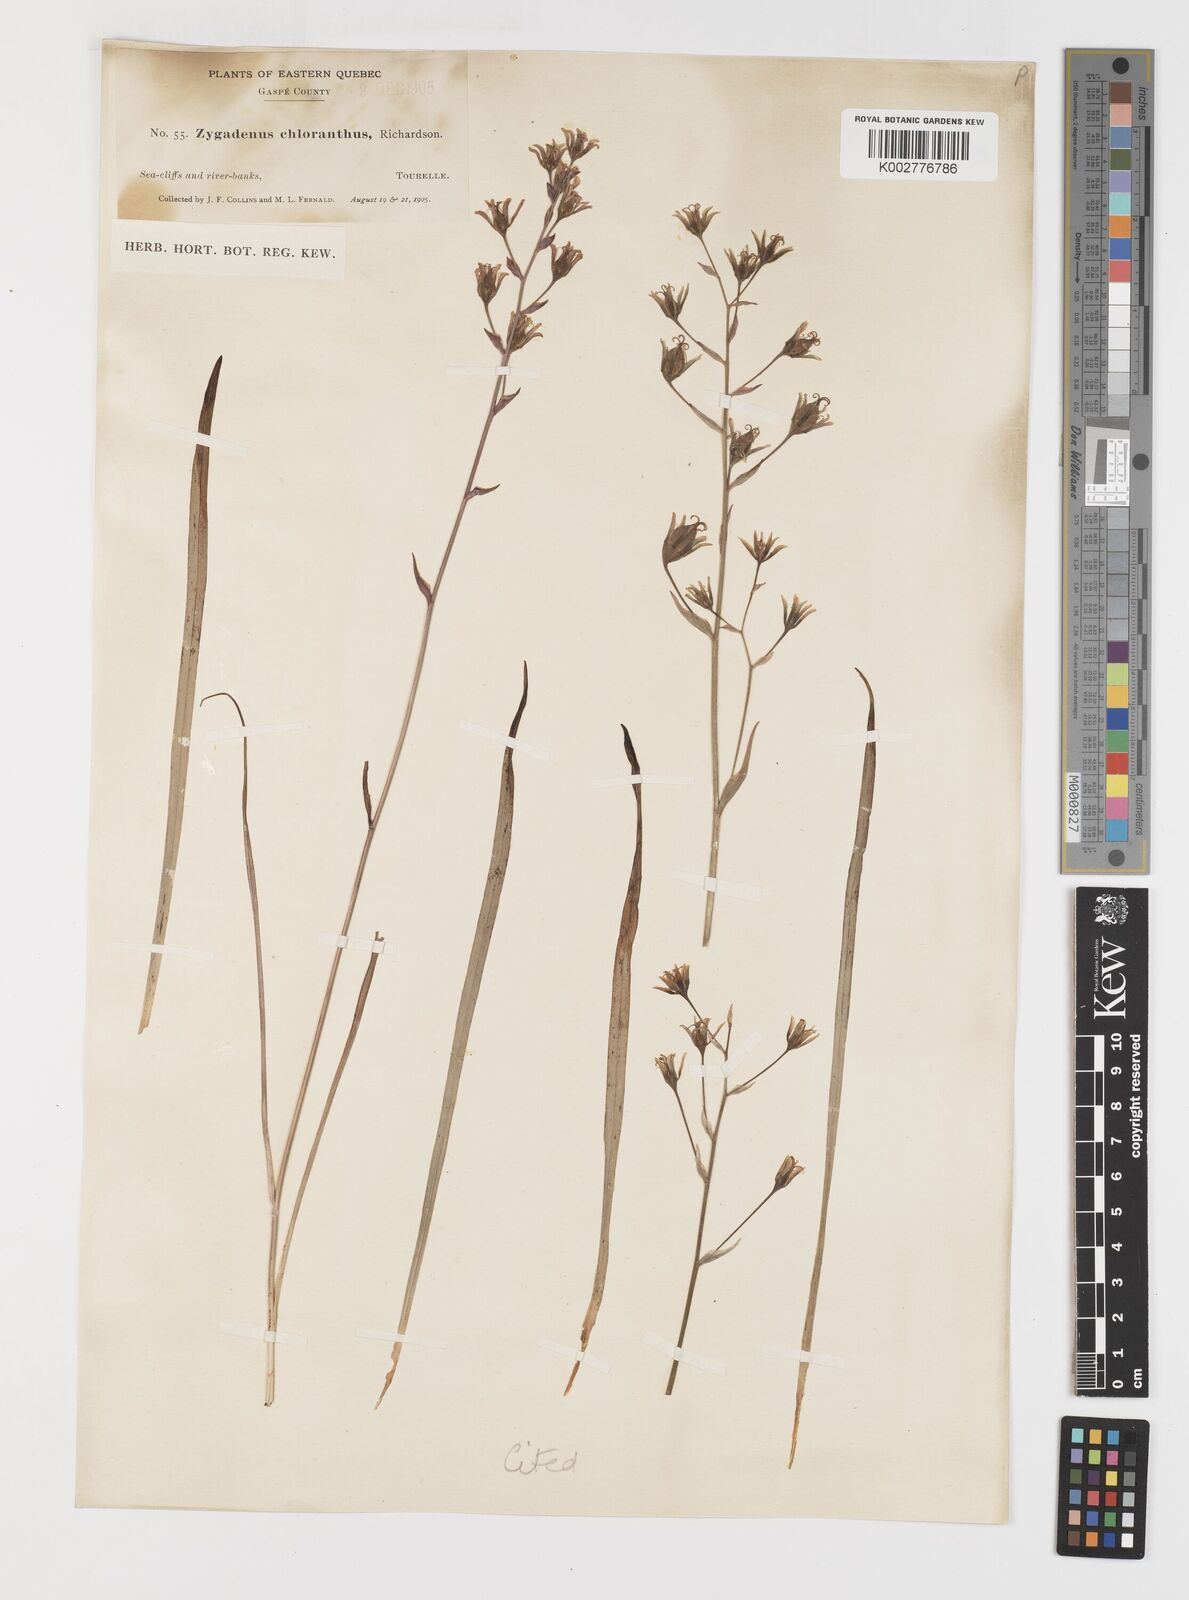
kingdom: Plantae
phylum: Tracheophyta
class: Liliopsida
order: Liliales
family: Melanthiaceae
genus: Anticlea
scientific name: Anticlea elegans
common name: Mountain death camas
